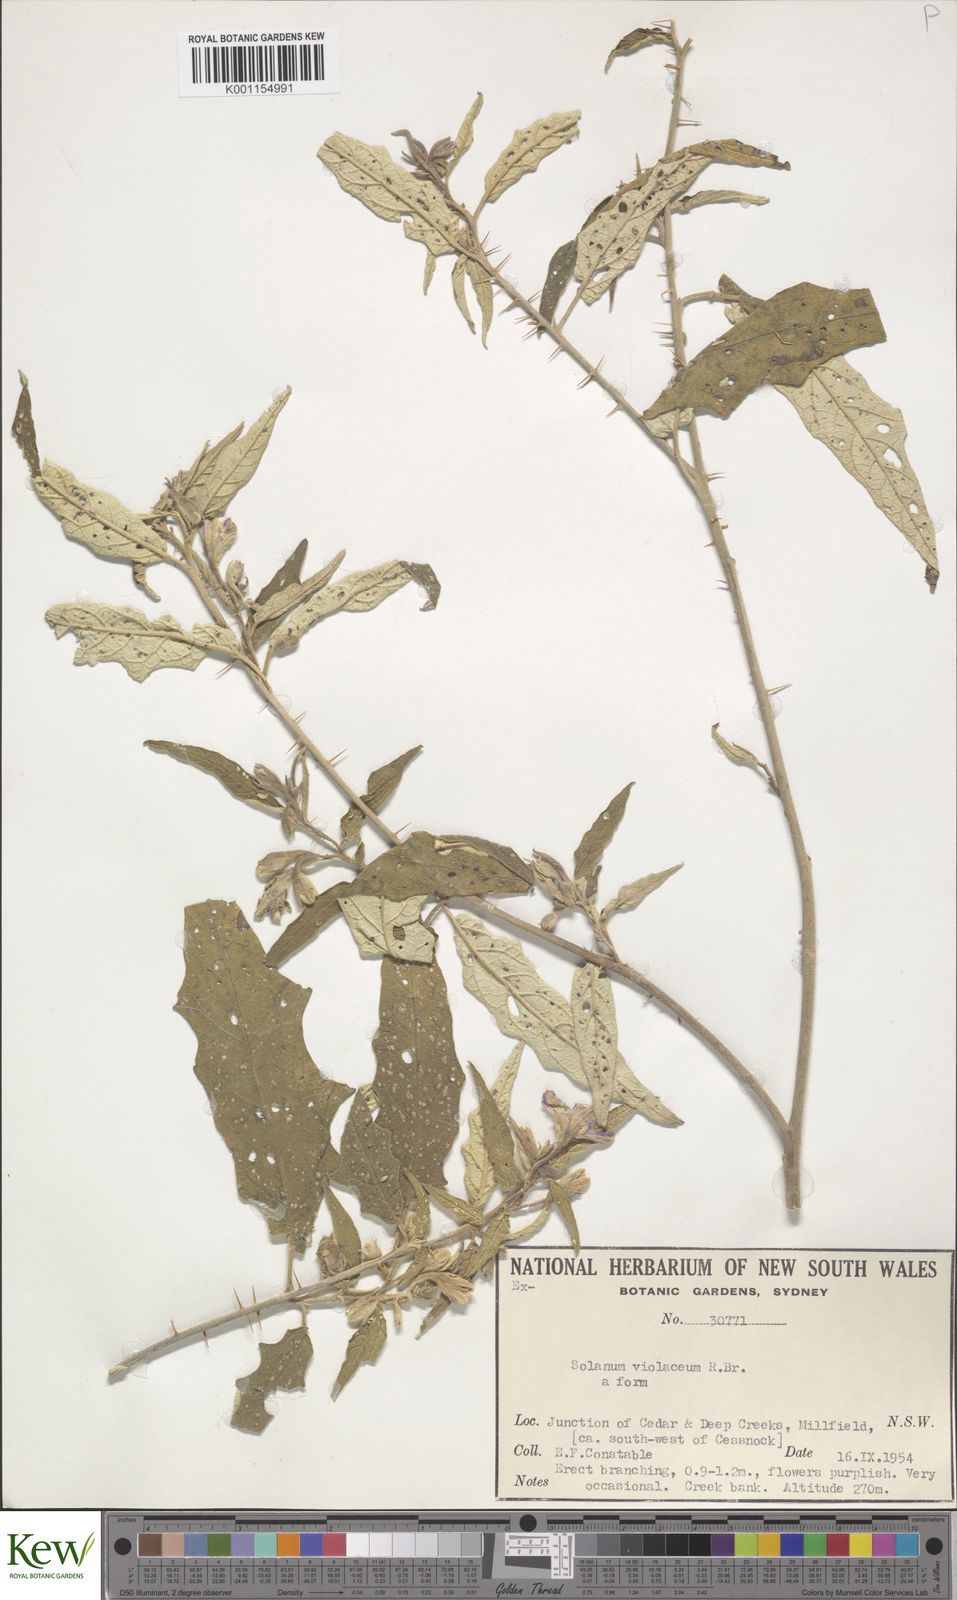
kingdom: Plantae
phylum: Tracheophyta
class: Magnoliopsida
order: Solanales
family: Solanaceae
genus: Solanum
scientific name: Solanum brownii
